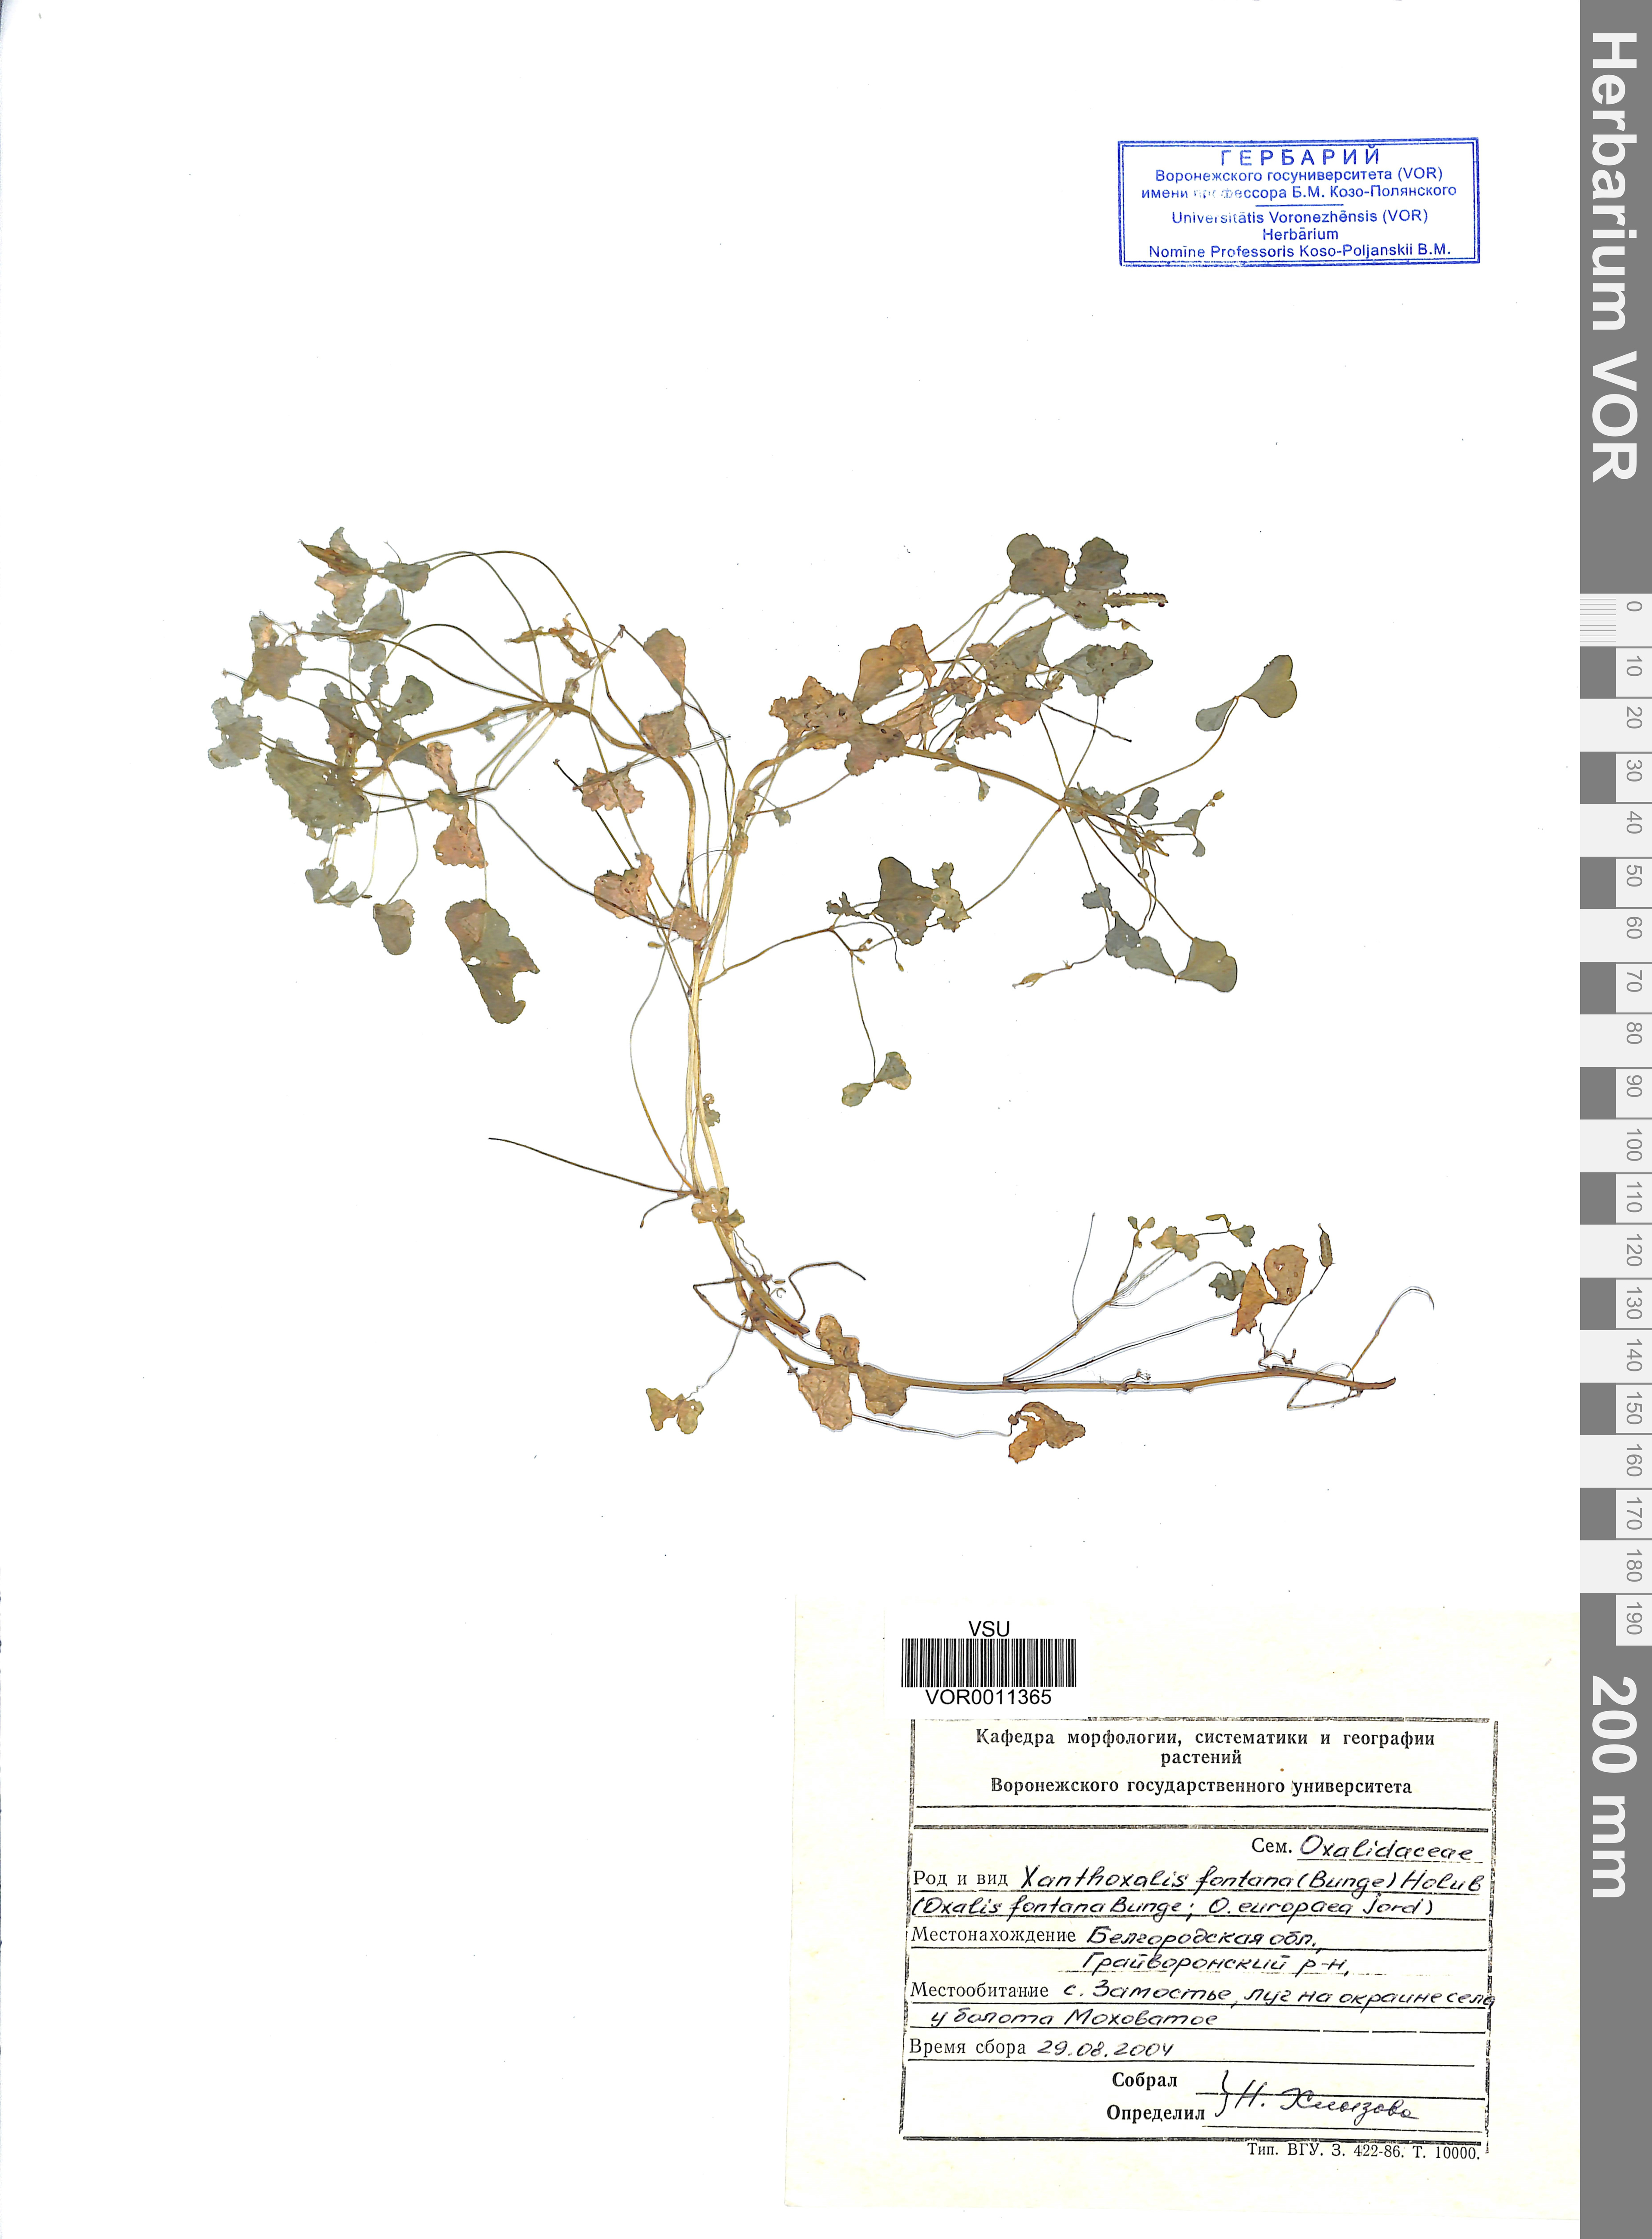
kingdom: Plantae
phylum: Tracheophyta
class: Magnoliopsida
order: Oxalidales
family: Oxalidaceae
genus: Oxalis
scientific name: Oxalis stricta
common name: Upright yellow-sorrel
